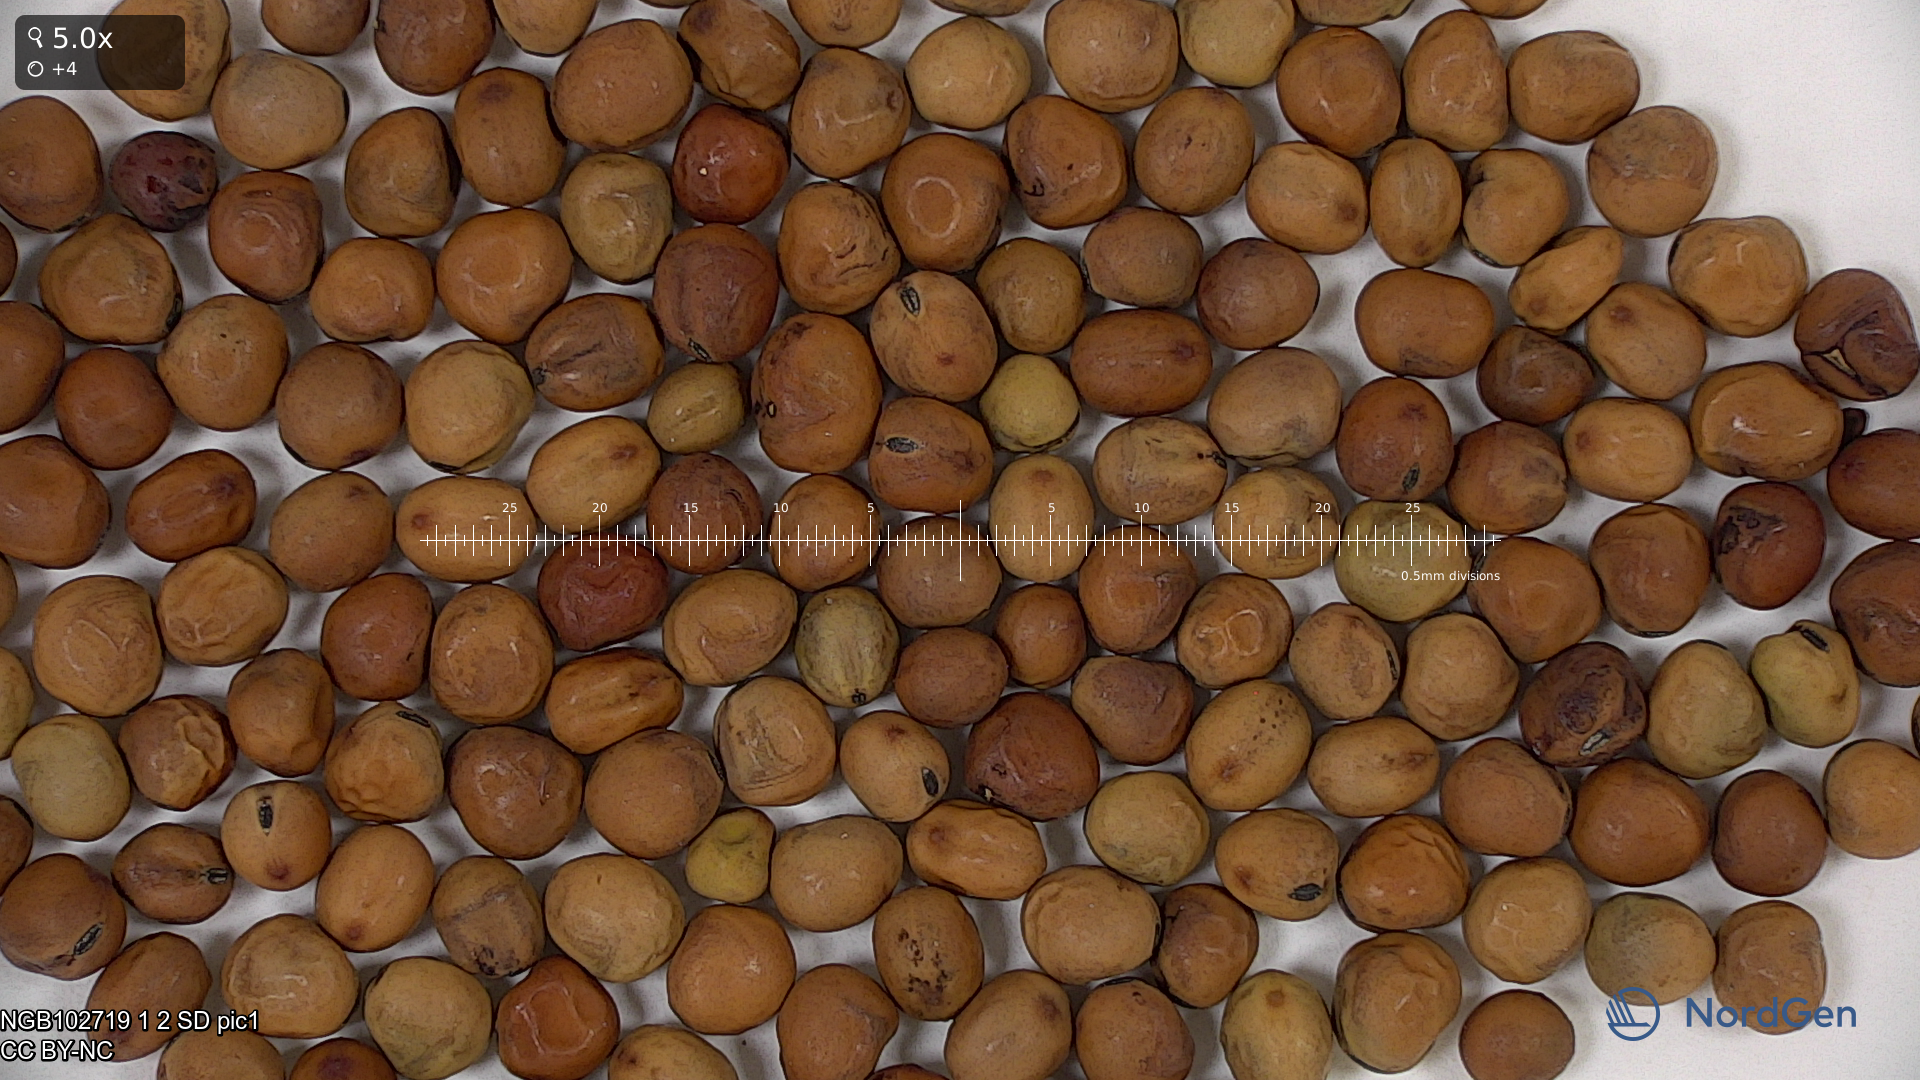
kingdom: Plantae
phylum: Tracheophyta
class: Magnoliopsida
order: Fabales
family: Fabaceae
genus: Lathyrus
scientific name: Lathyrus oleraceus
